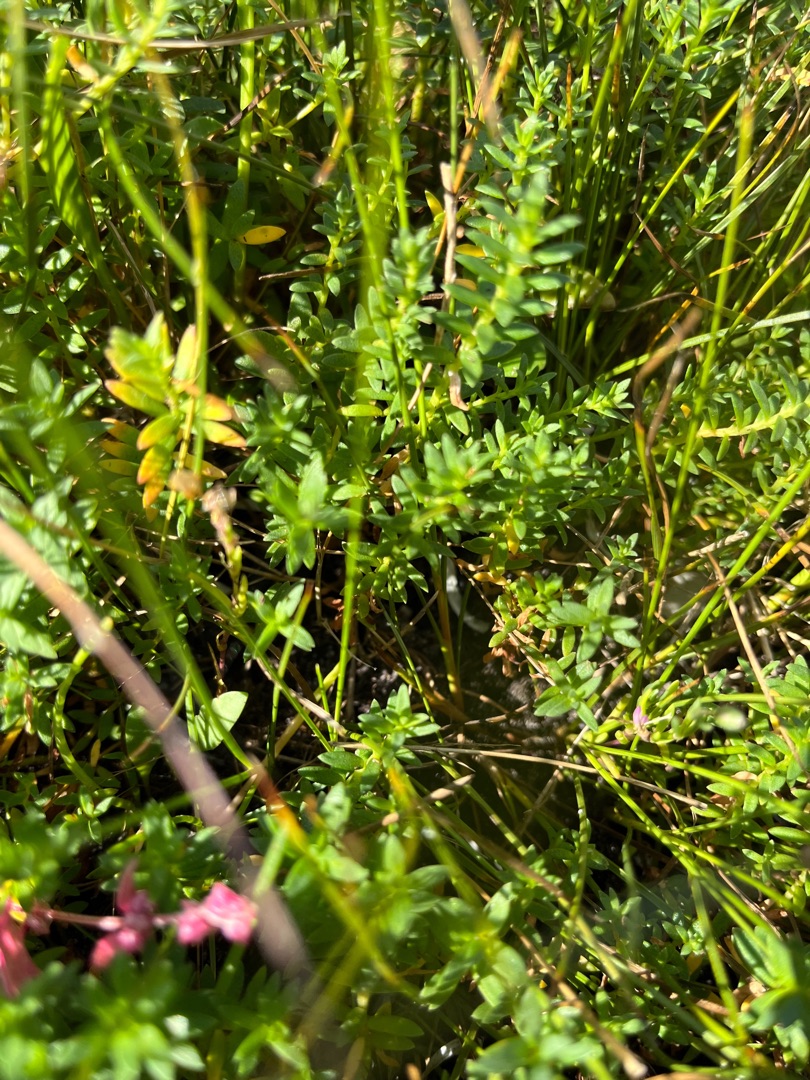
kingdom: Plantae
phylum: Tracheophyta
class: Magnoliopsida
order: Ericales
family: Primulaceae
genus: Lysimachia
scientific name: Lysimachia maritima
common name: Sandkryb
